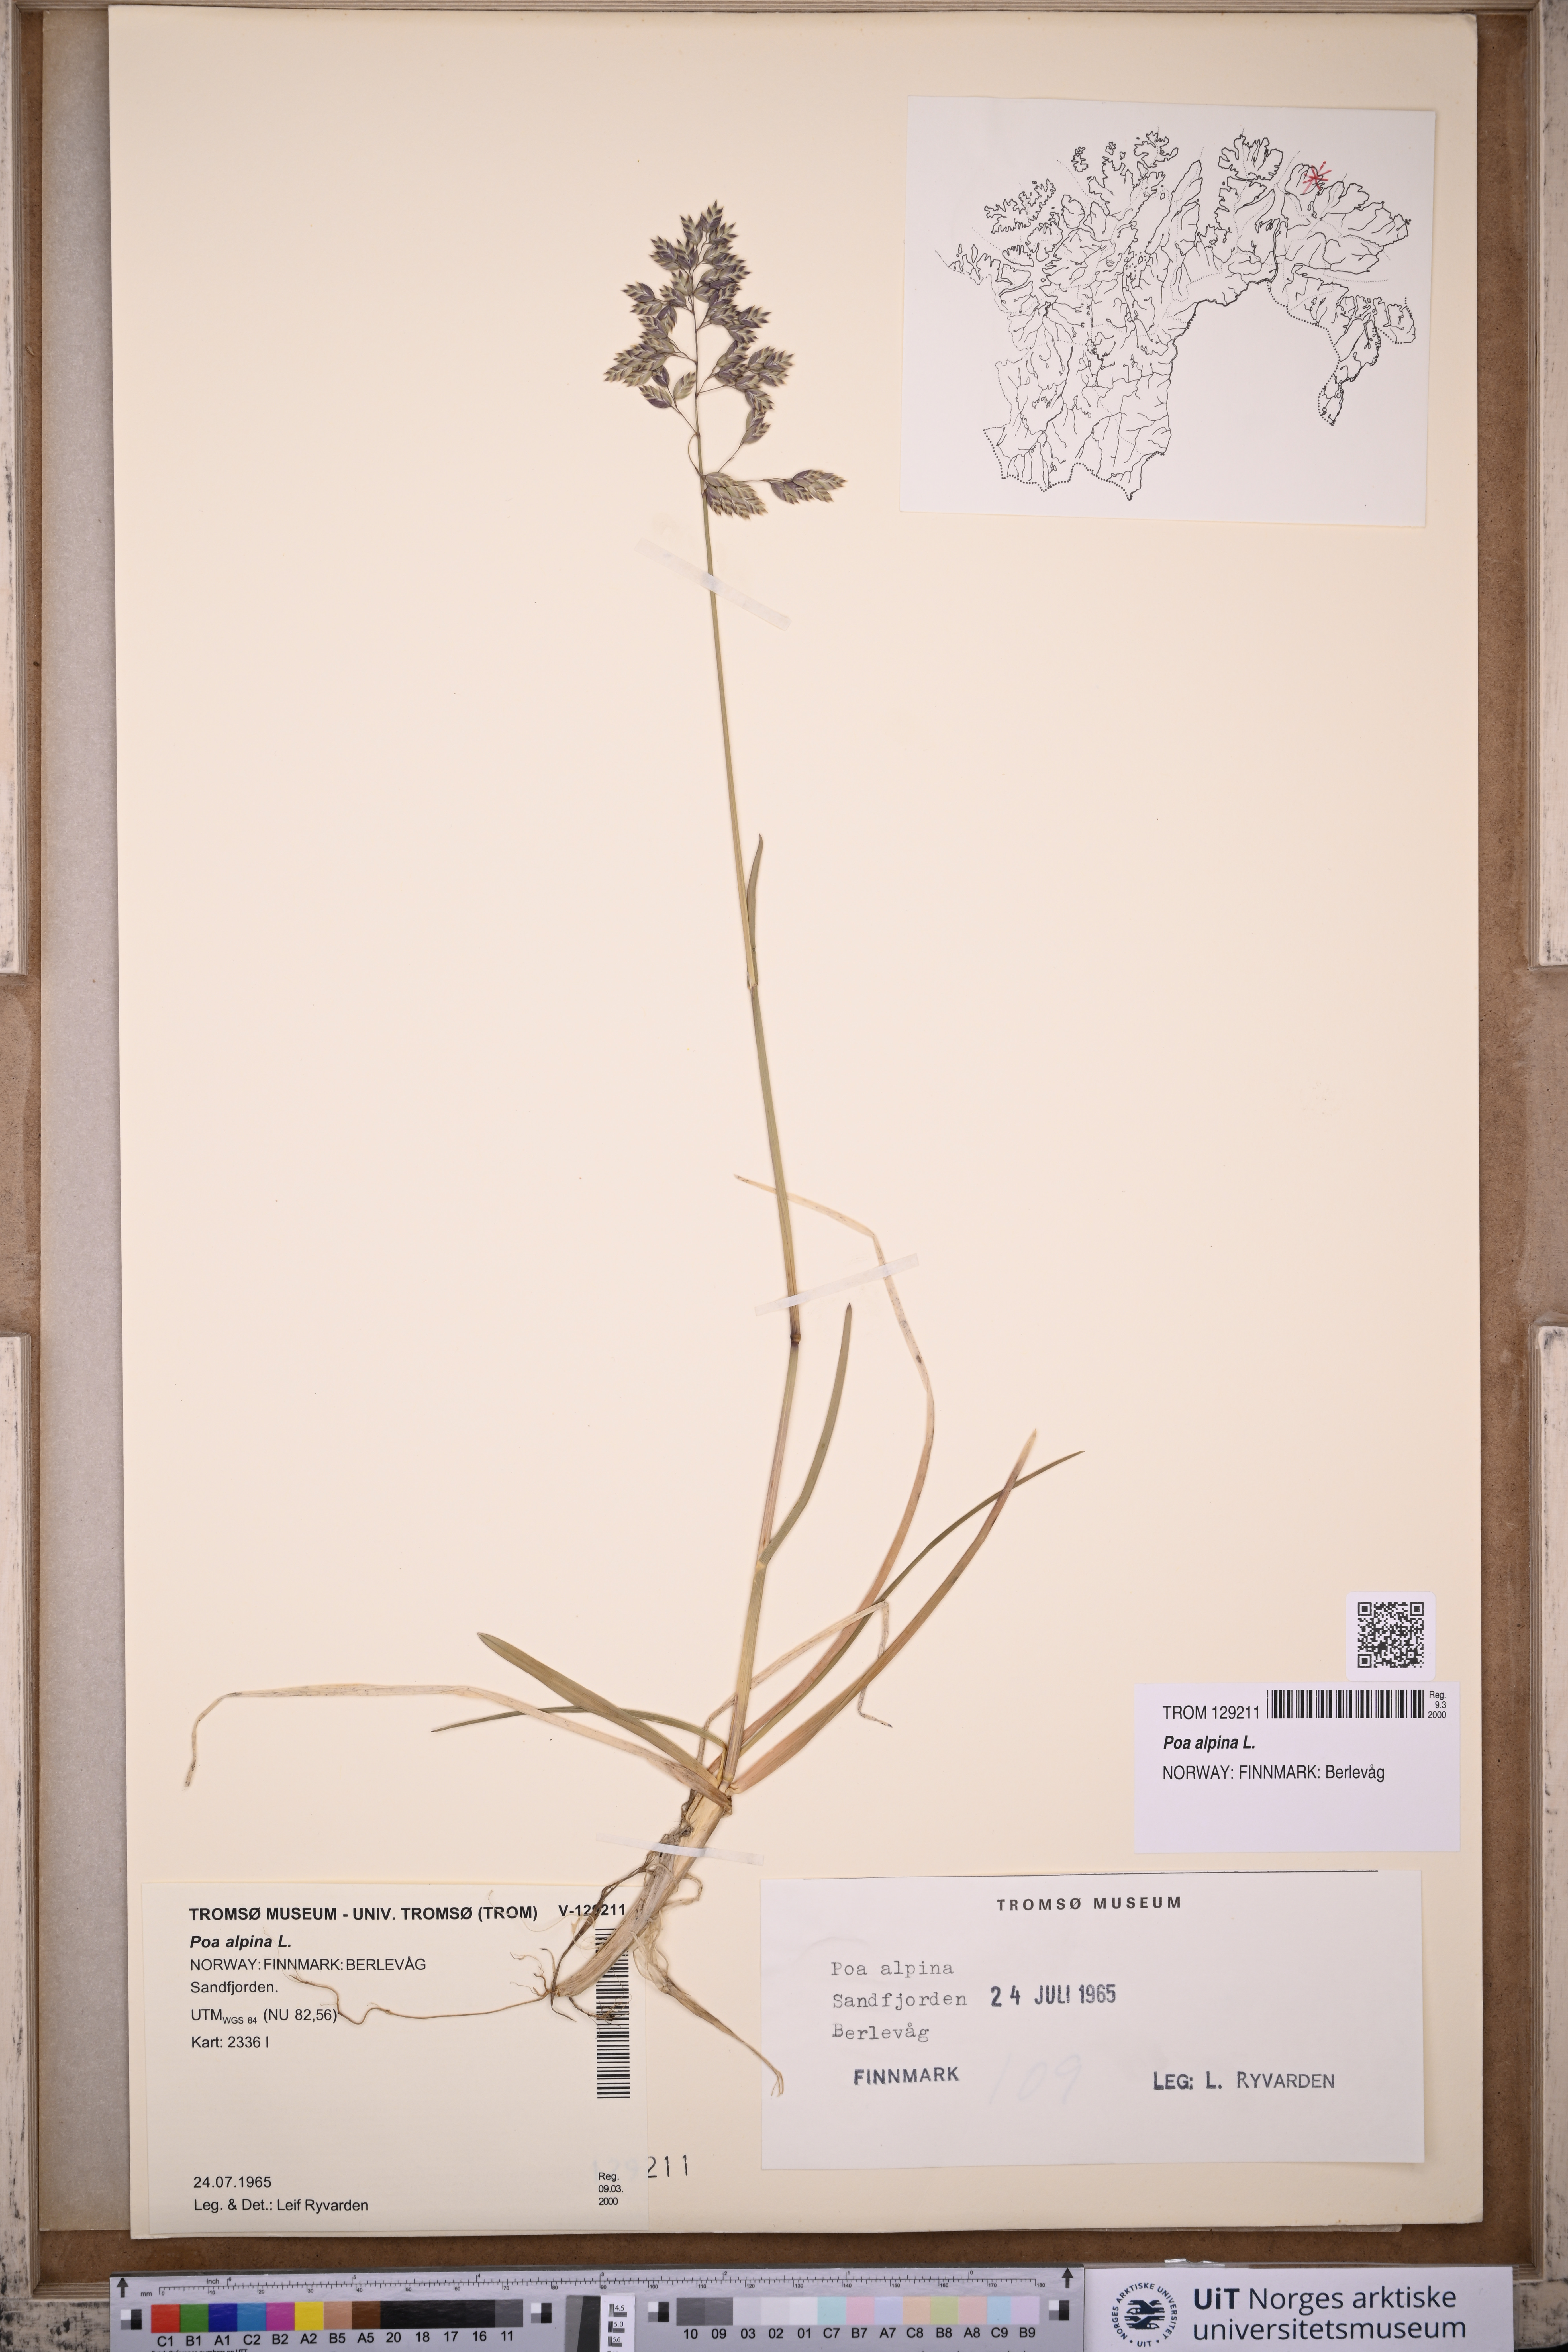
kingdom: Plantae
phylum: Tracheophyta
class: Liliopsida
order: Poales
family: Poaceae
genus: Poa
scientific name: Poa alpina
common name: Alpine bluegrass
